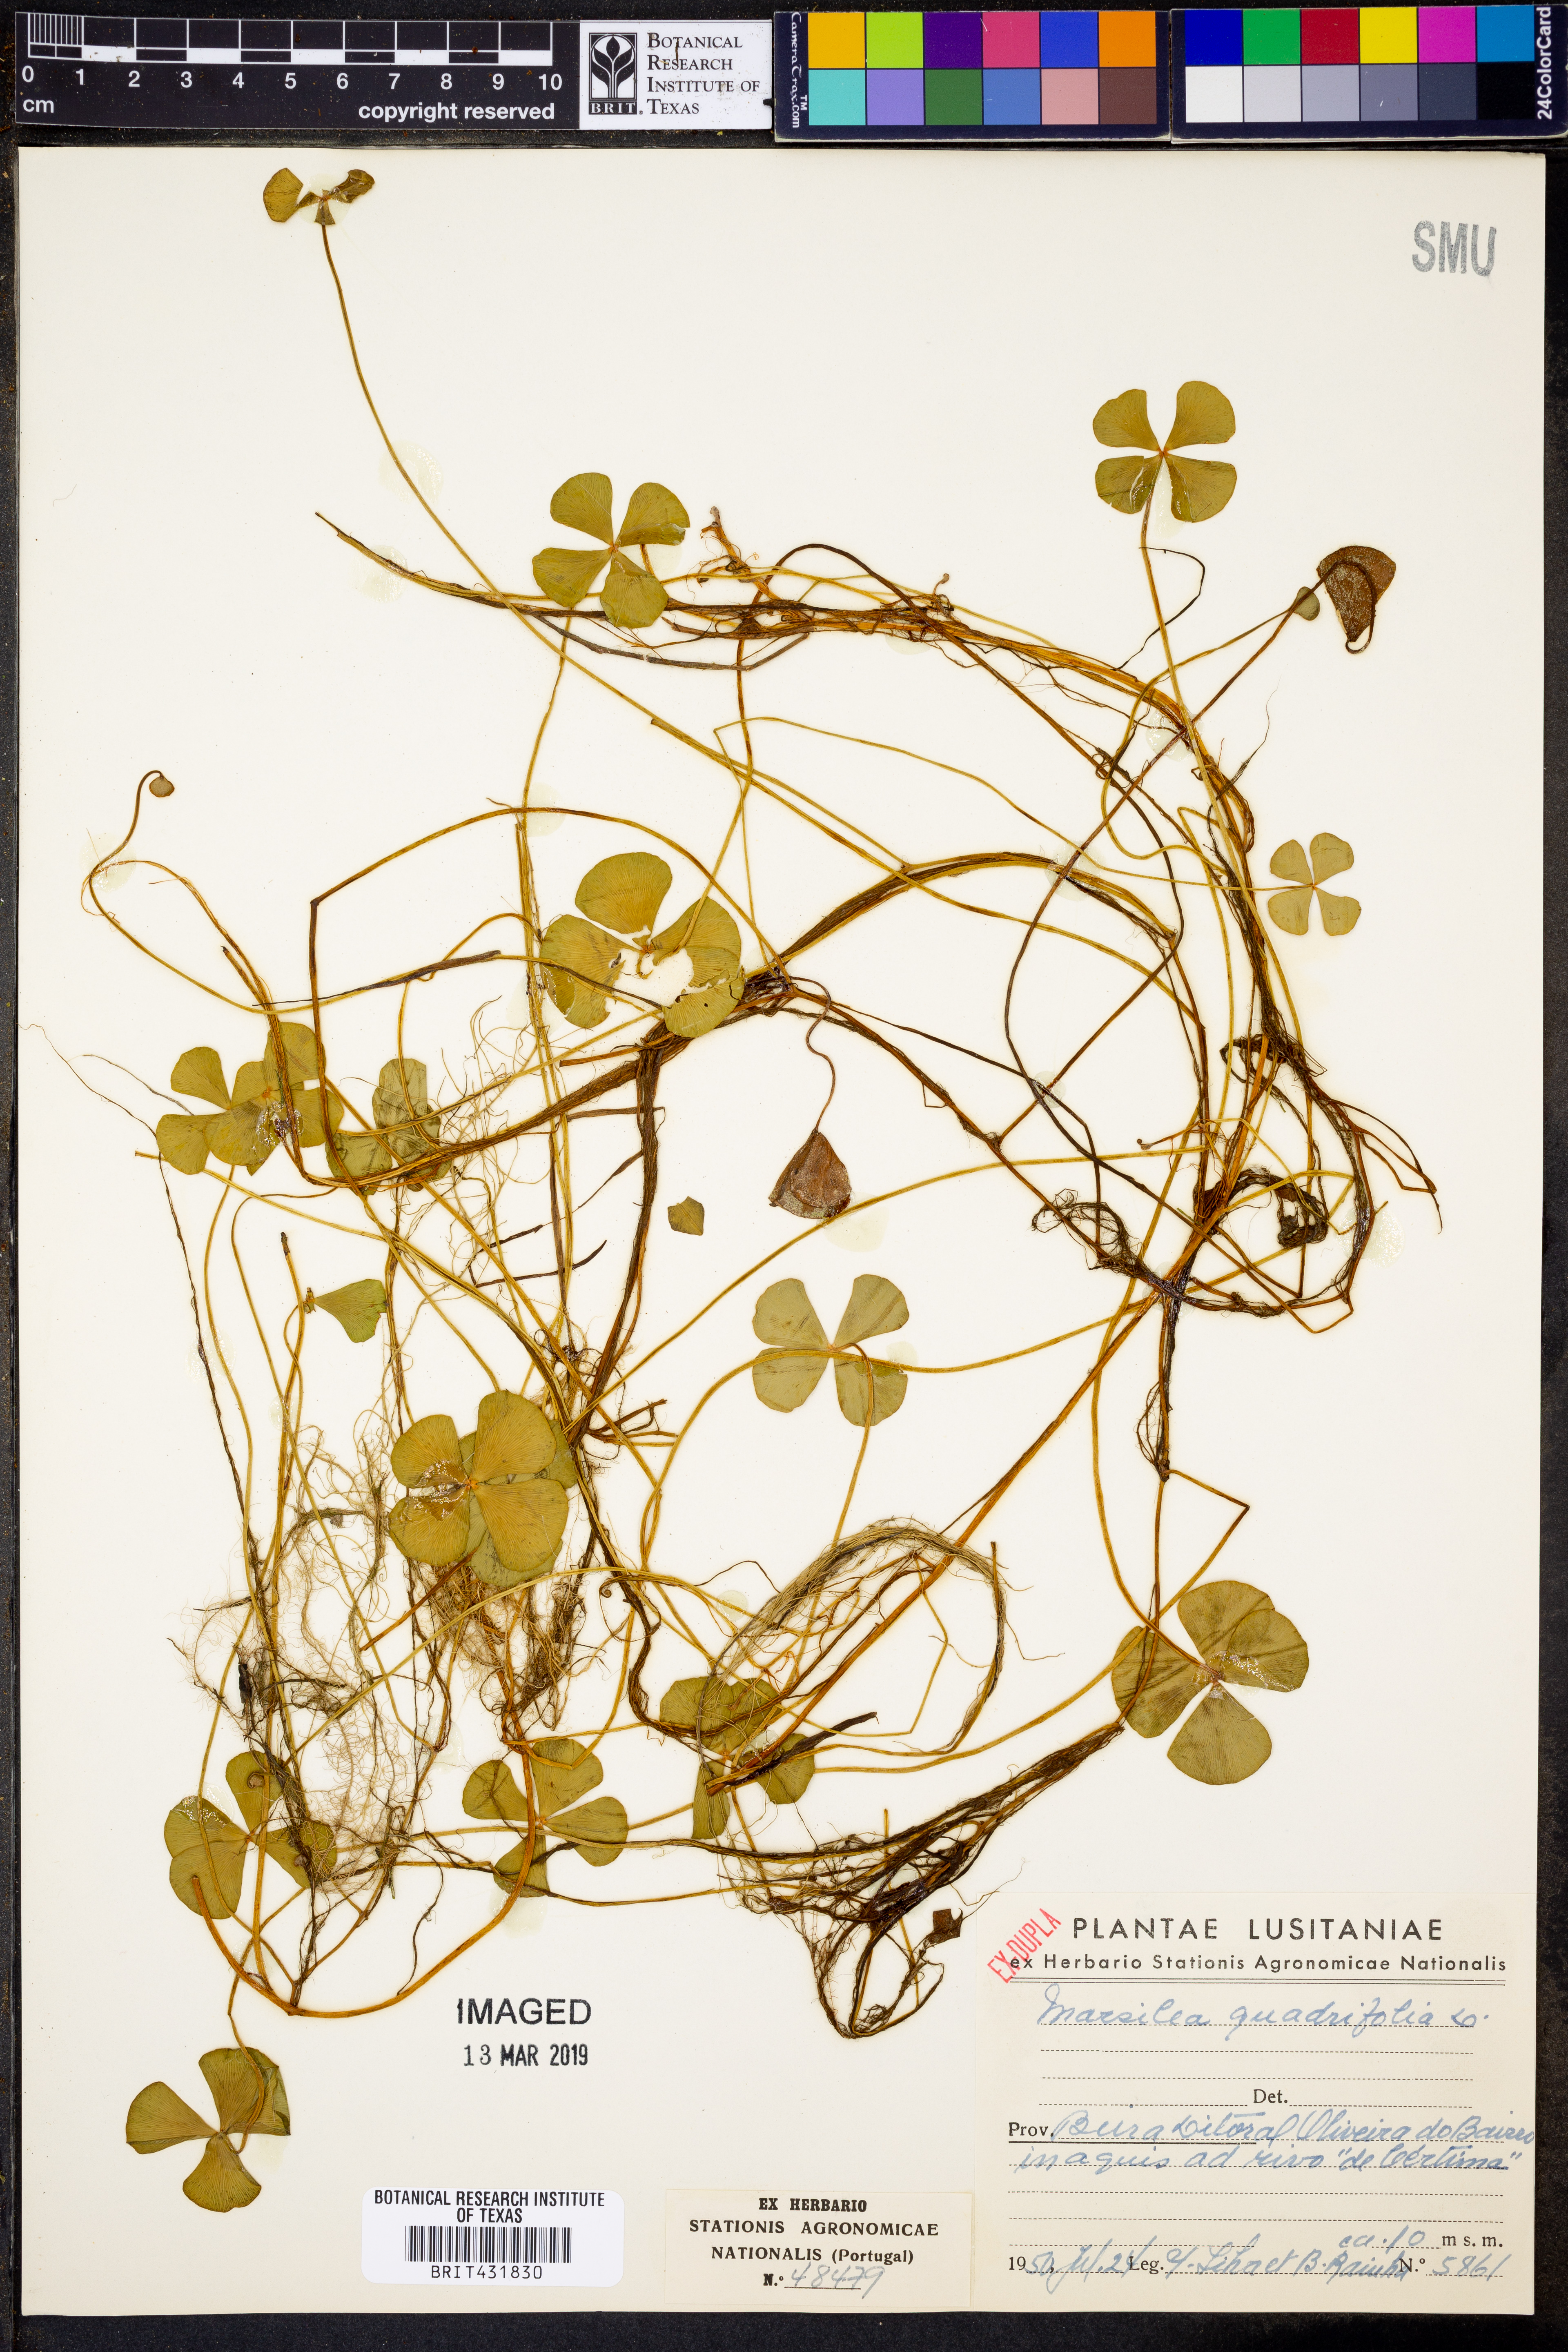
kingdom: Plantae
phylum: Tracheophyta
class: Polypodiopsida
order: Salviniales
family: Marsileaceae
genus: Marsilea
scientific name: Marsilea quadrifolia
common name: Water shamrock
